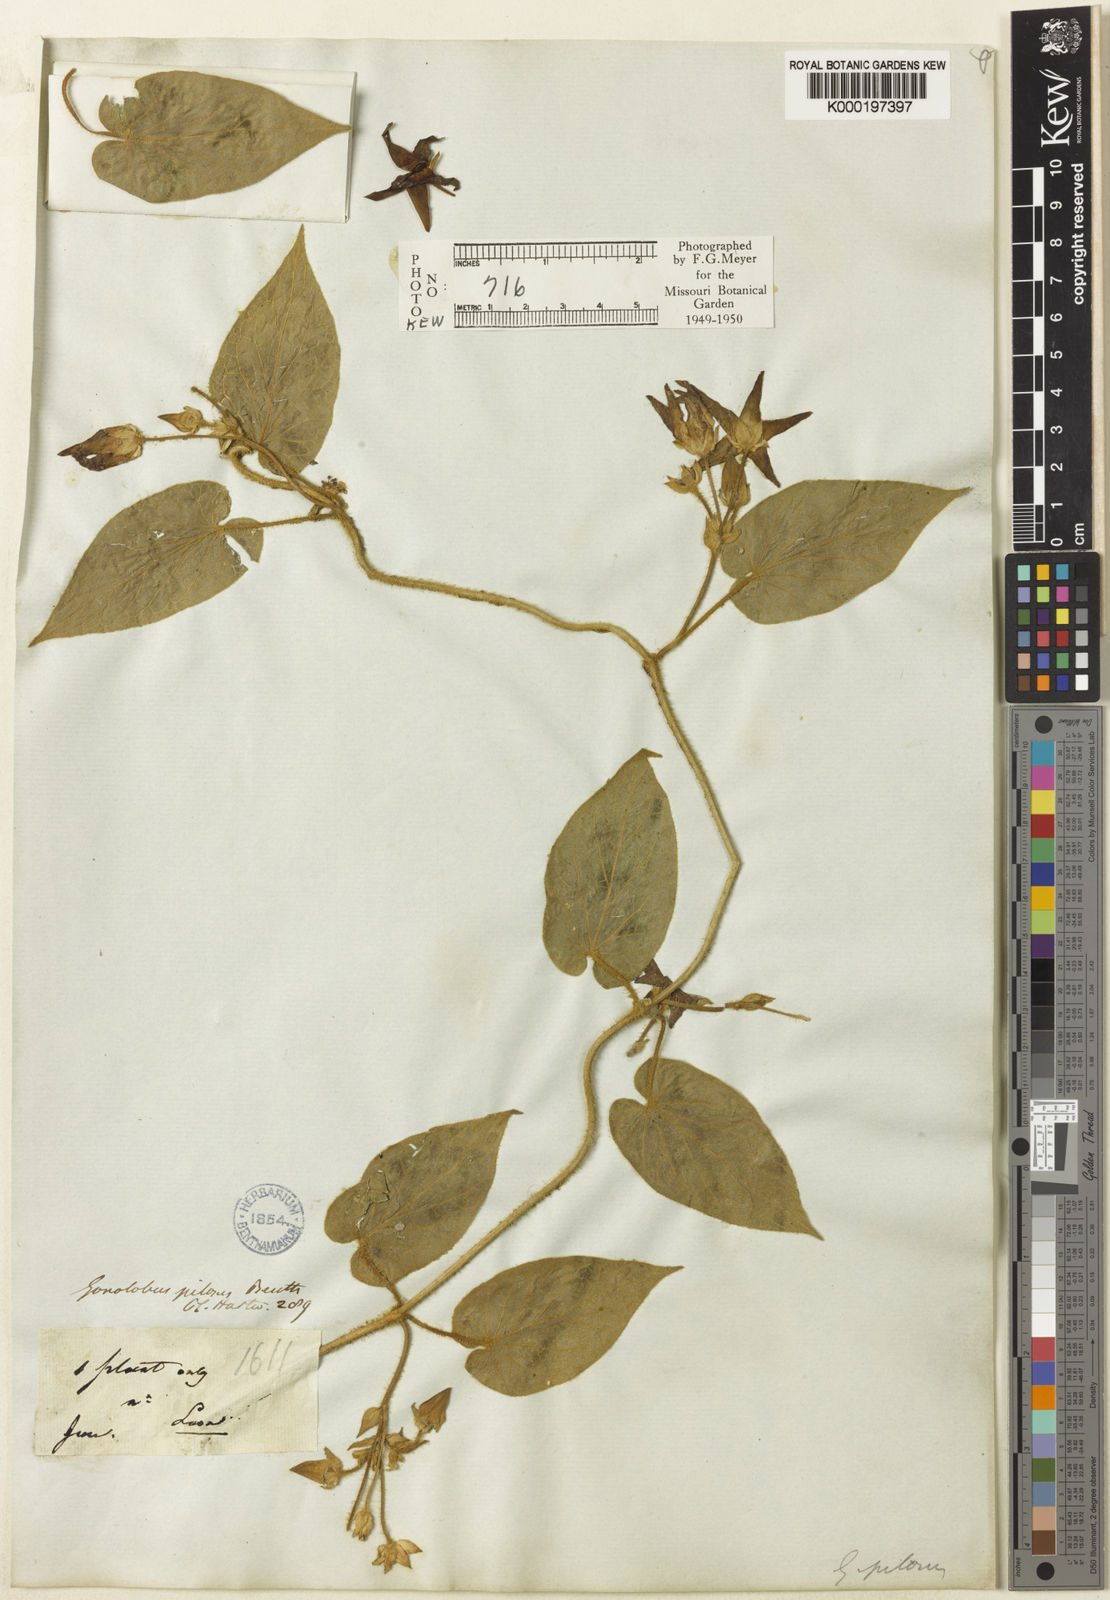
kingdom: Plantae
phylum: Tracheophyta
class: Magnoliopsida
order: Gentianales
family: Apocynaceae
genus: Matelea
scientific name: Matelea pilosa
